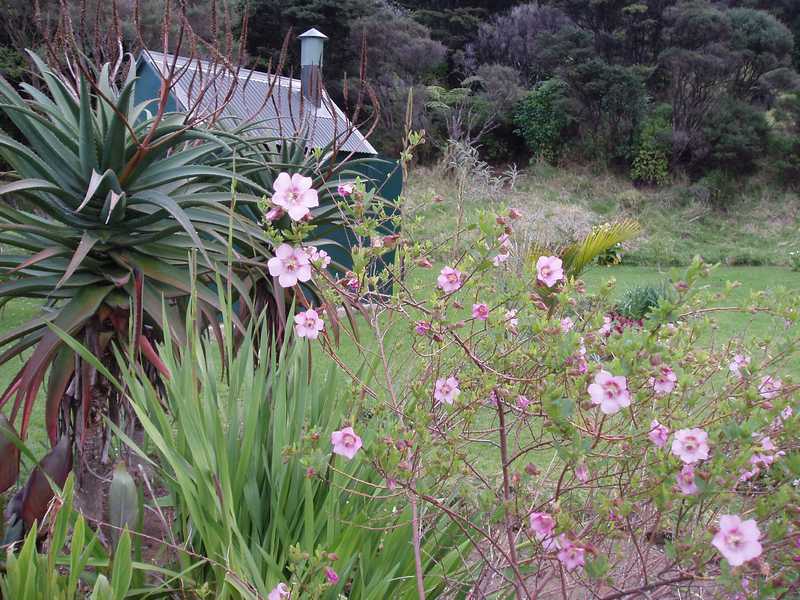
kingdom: Plantae
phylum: Tracheophyta
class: Magnoliopsida
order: Malvales
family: Malvaceae
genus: Anisodontea
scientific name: Anisodontea capensis
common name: Cape african-queen
